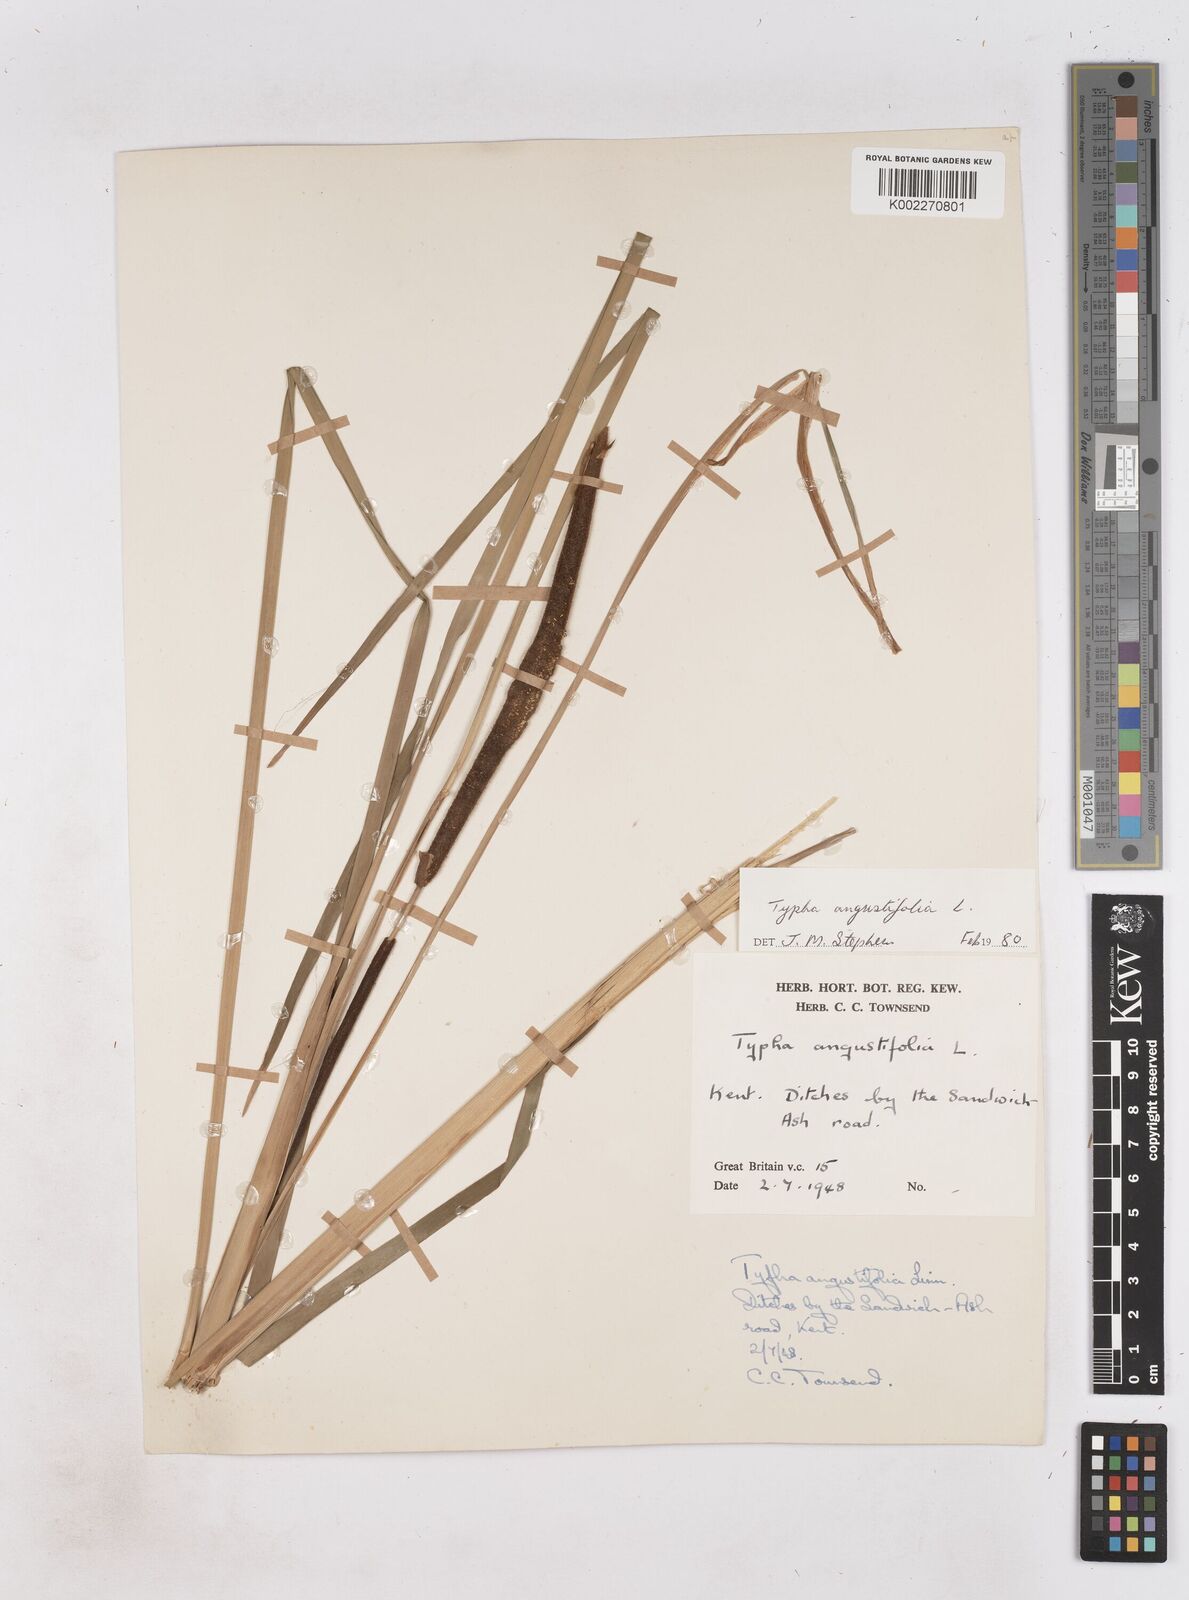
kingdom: Plantae
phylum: Tracheophyta
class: Liliopsida
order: Poales
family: Typhaceae
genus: Typha
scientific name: Typha angustifolia
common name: Lesser bulrush
